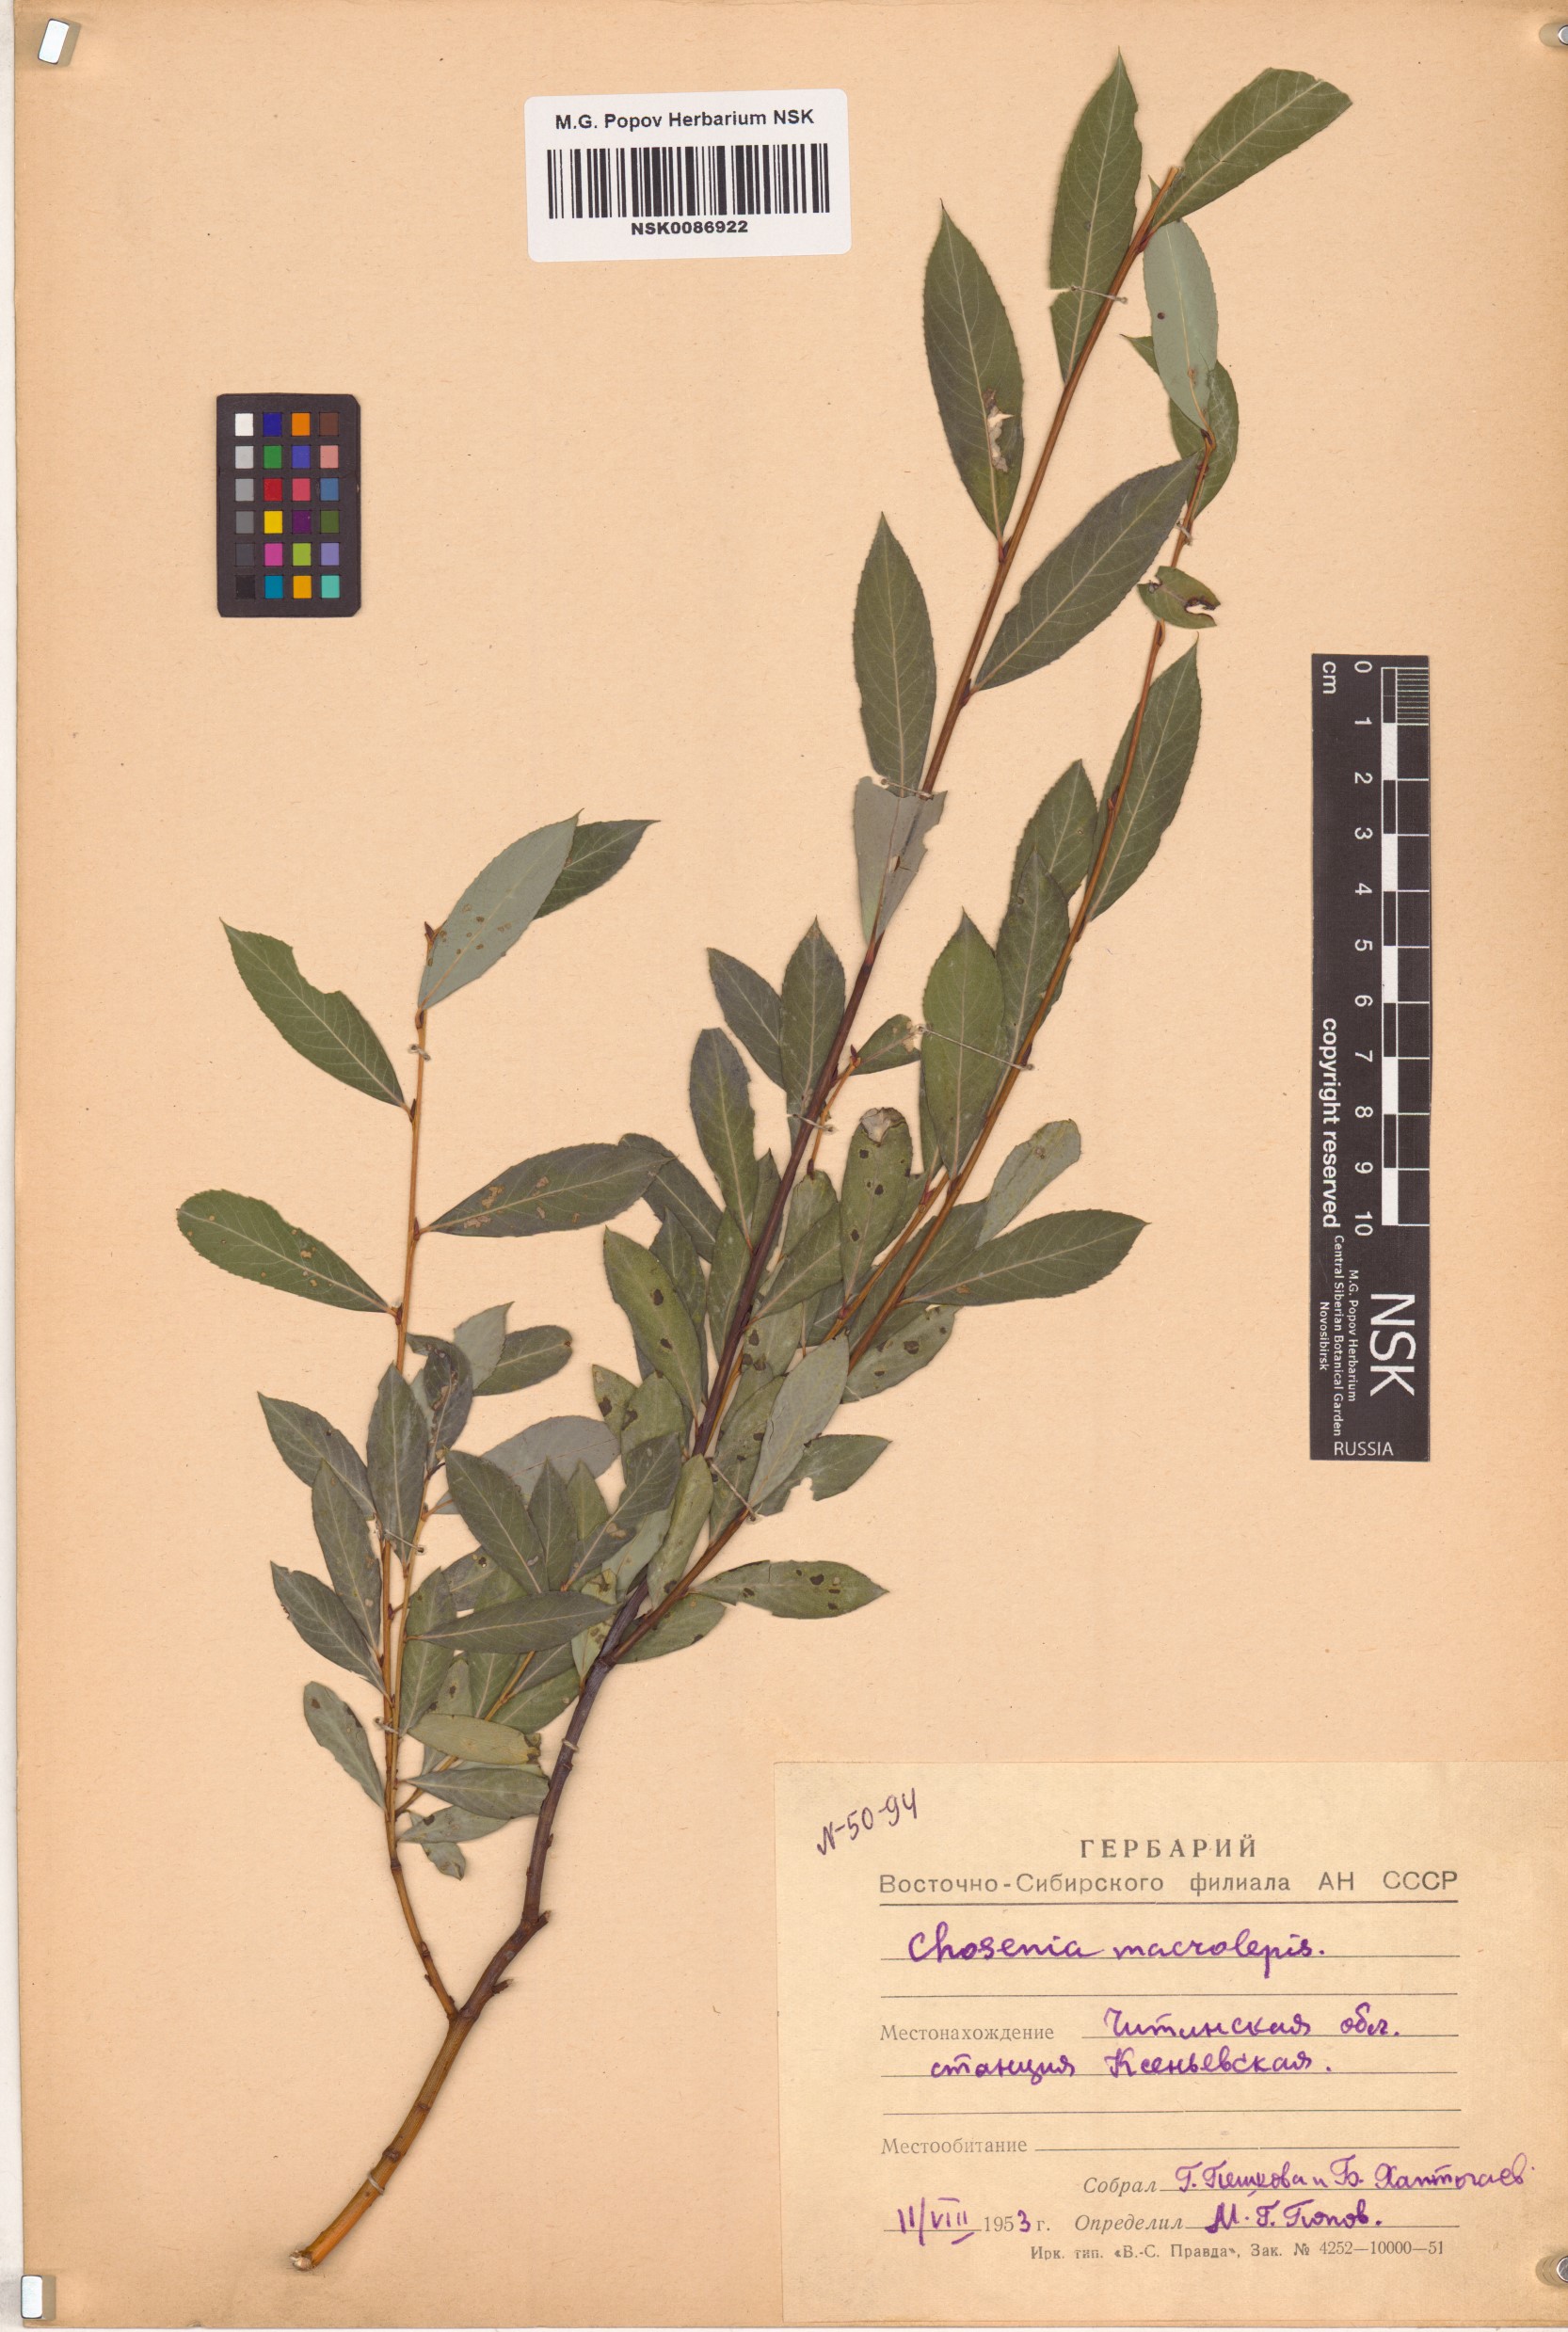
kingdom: Plantae
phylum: Tracheophyta
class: Magnoliopsida
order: Malpighiales
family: Salicaceae
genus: Chosenia
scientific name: Chosenia arbutifolia
